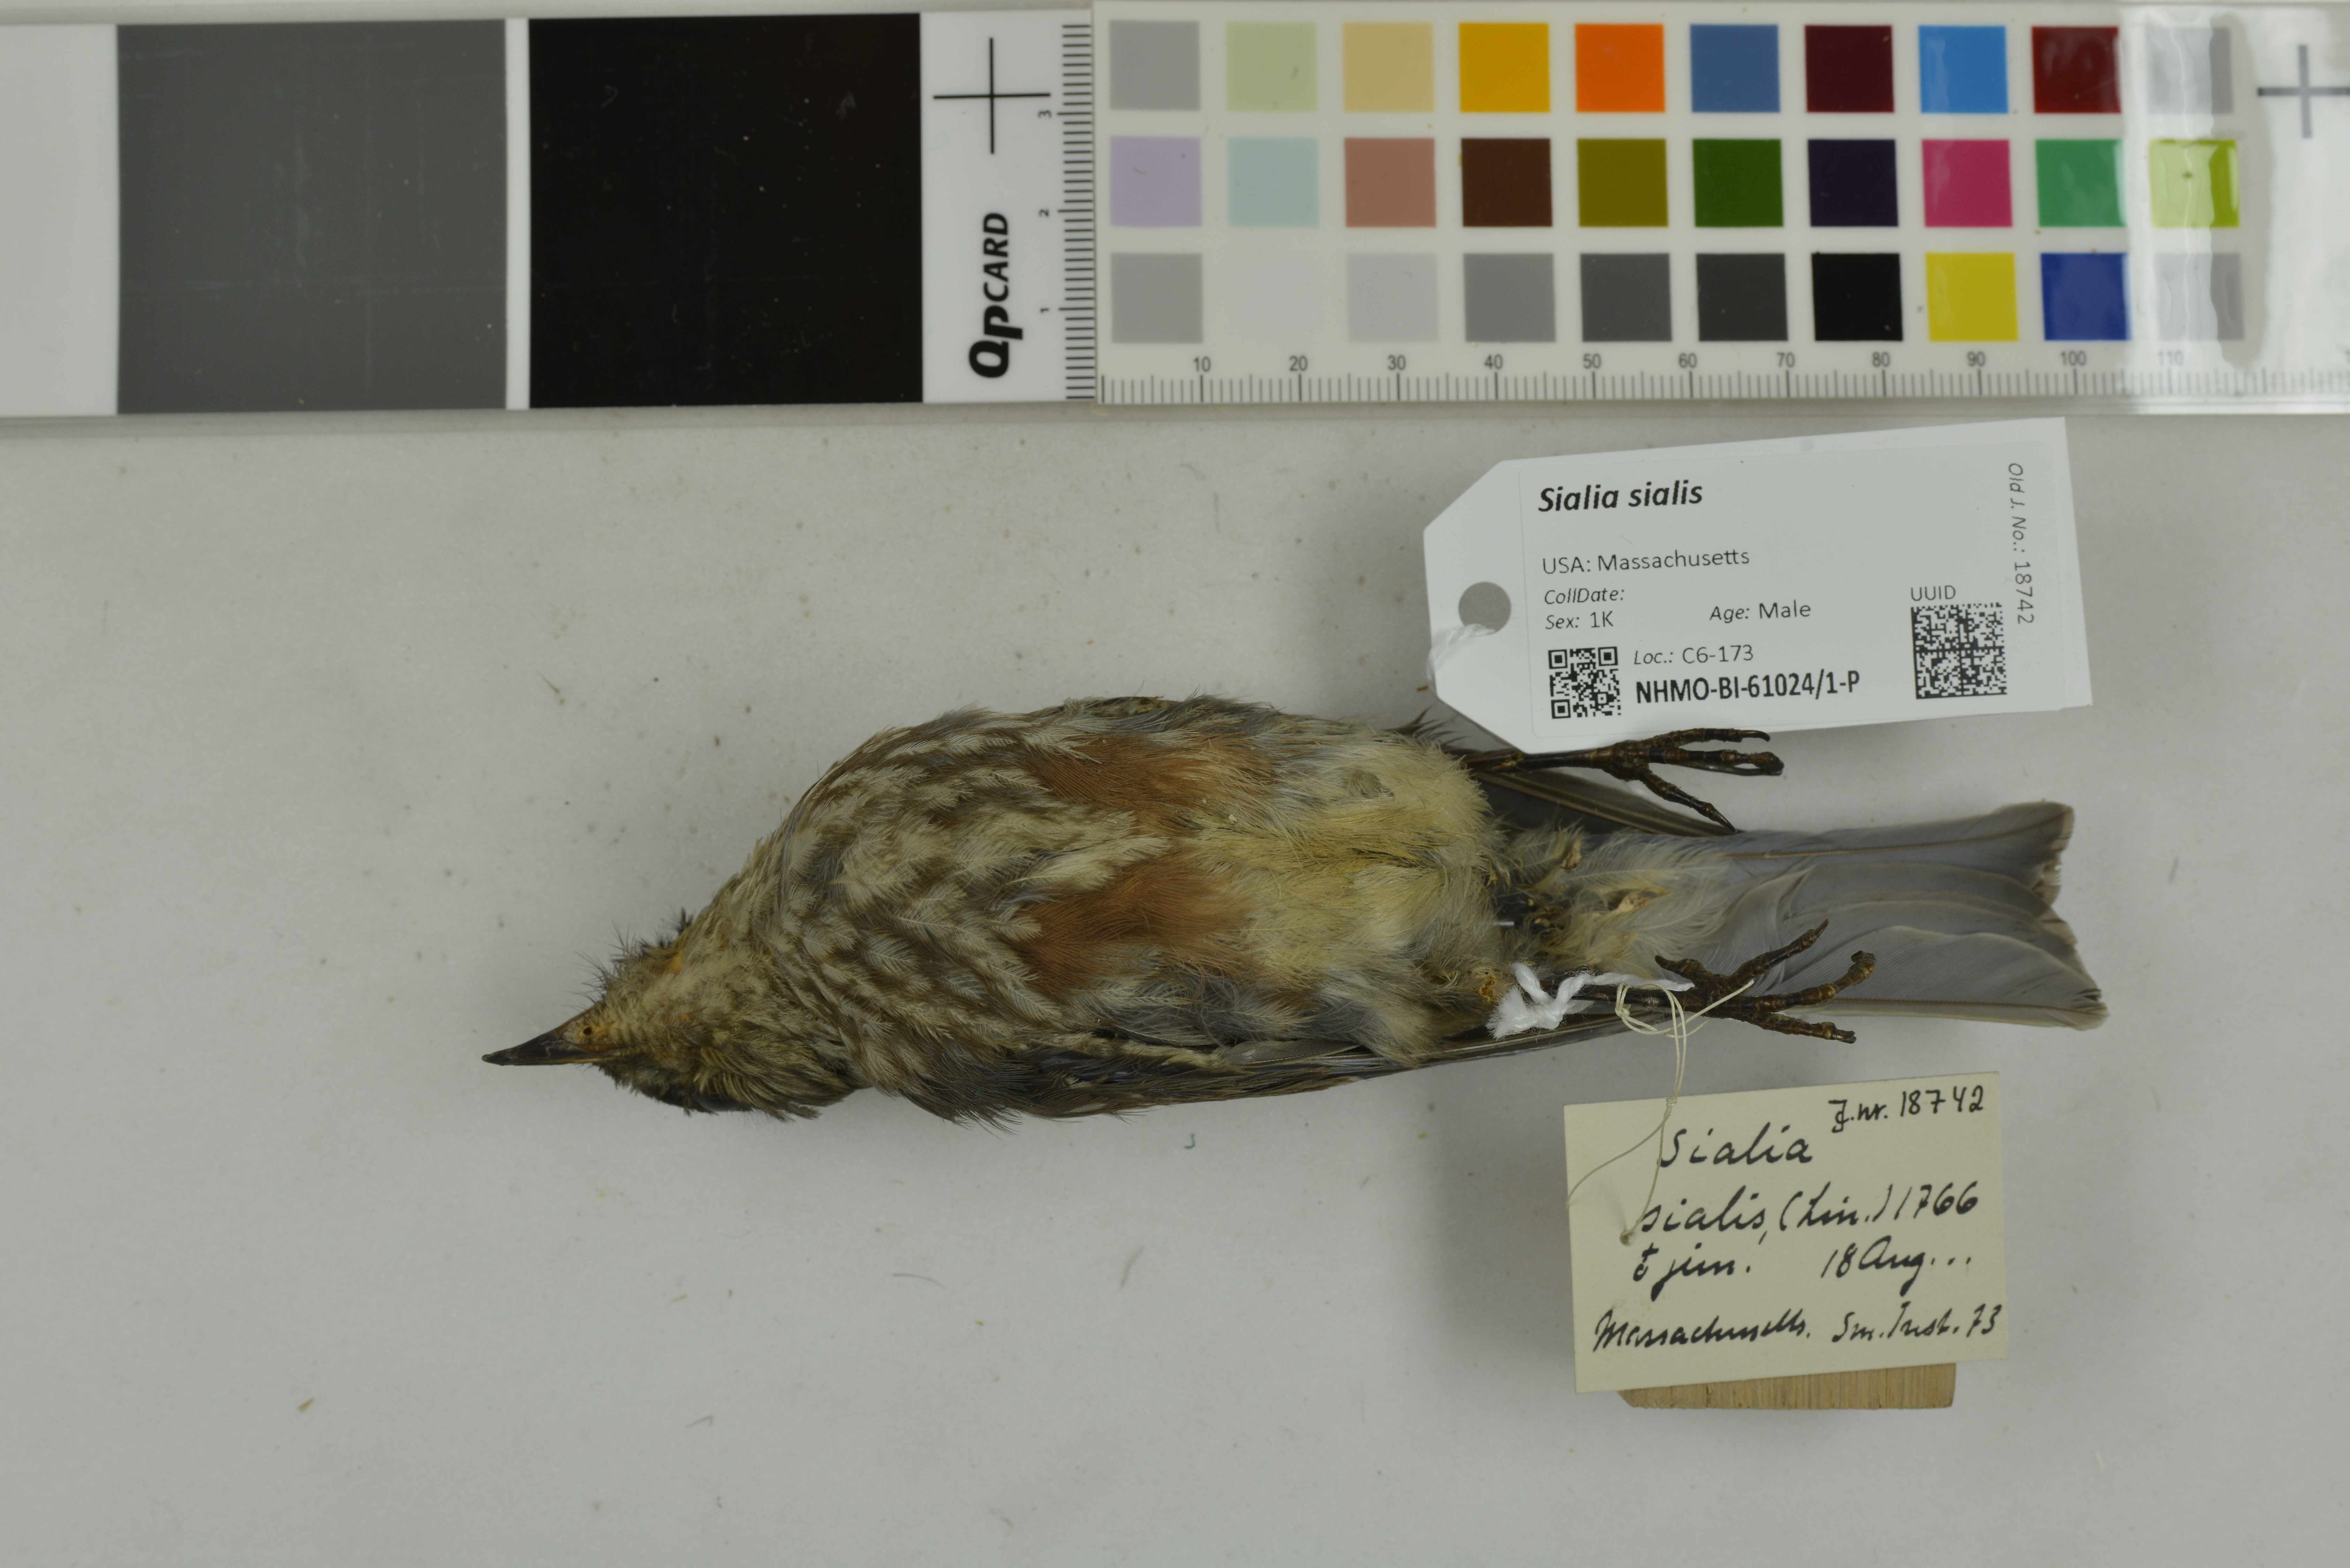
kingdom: Animalia
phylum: Chordata
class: Aves
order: Passeriformes
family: Turdidae
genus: Sialia
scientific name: Sialia sialis
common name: Eastern bluebird
